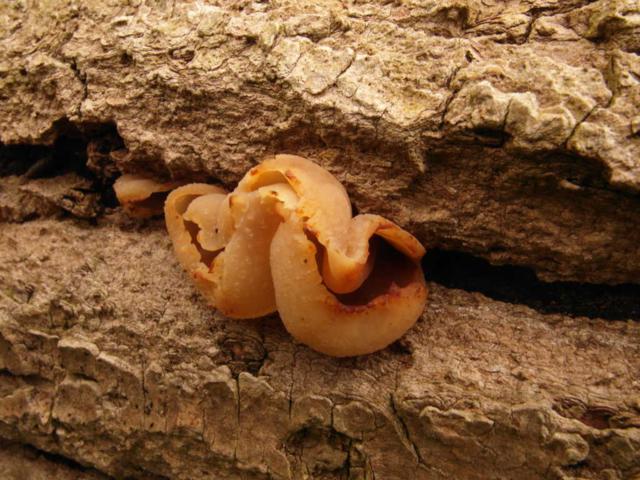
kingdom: Fungi
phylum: Ascomycota
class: Pezizomycetes
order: Pezizales
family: Pezizaceae
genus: Peziza
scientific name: Peziza varia
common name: Ved-bægersvamp
